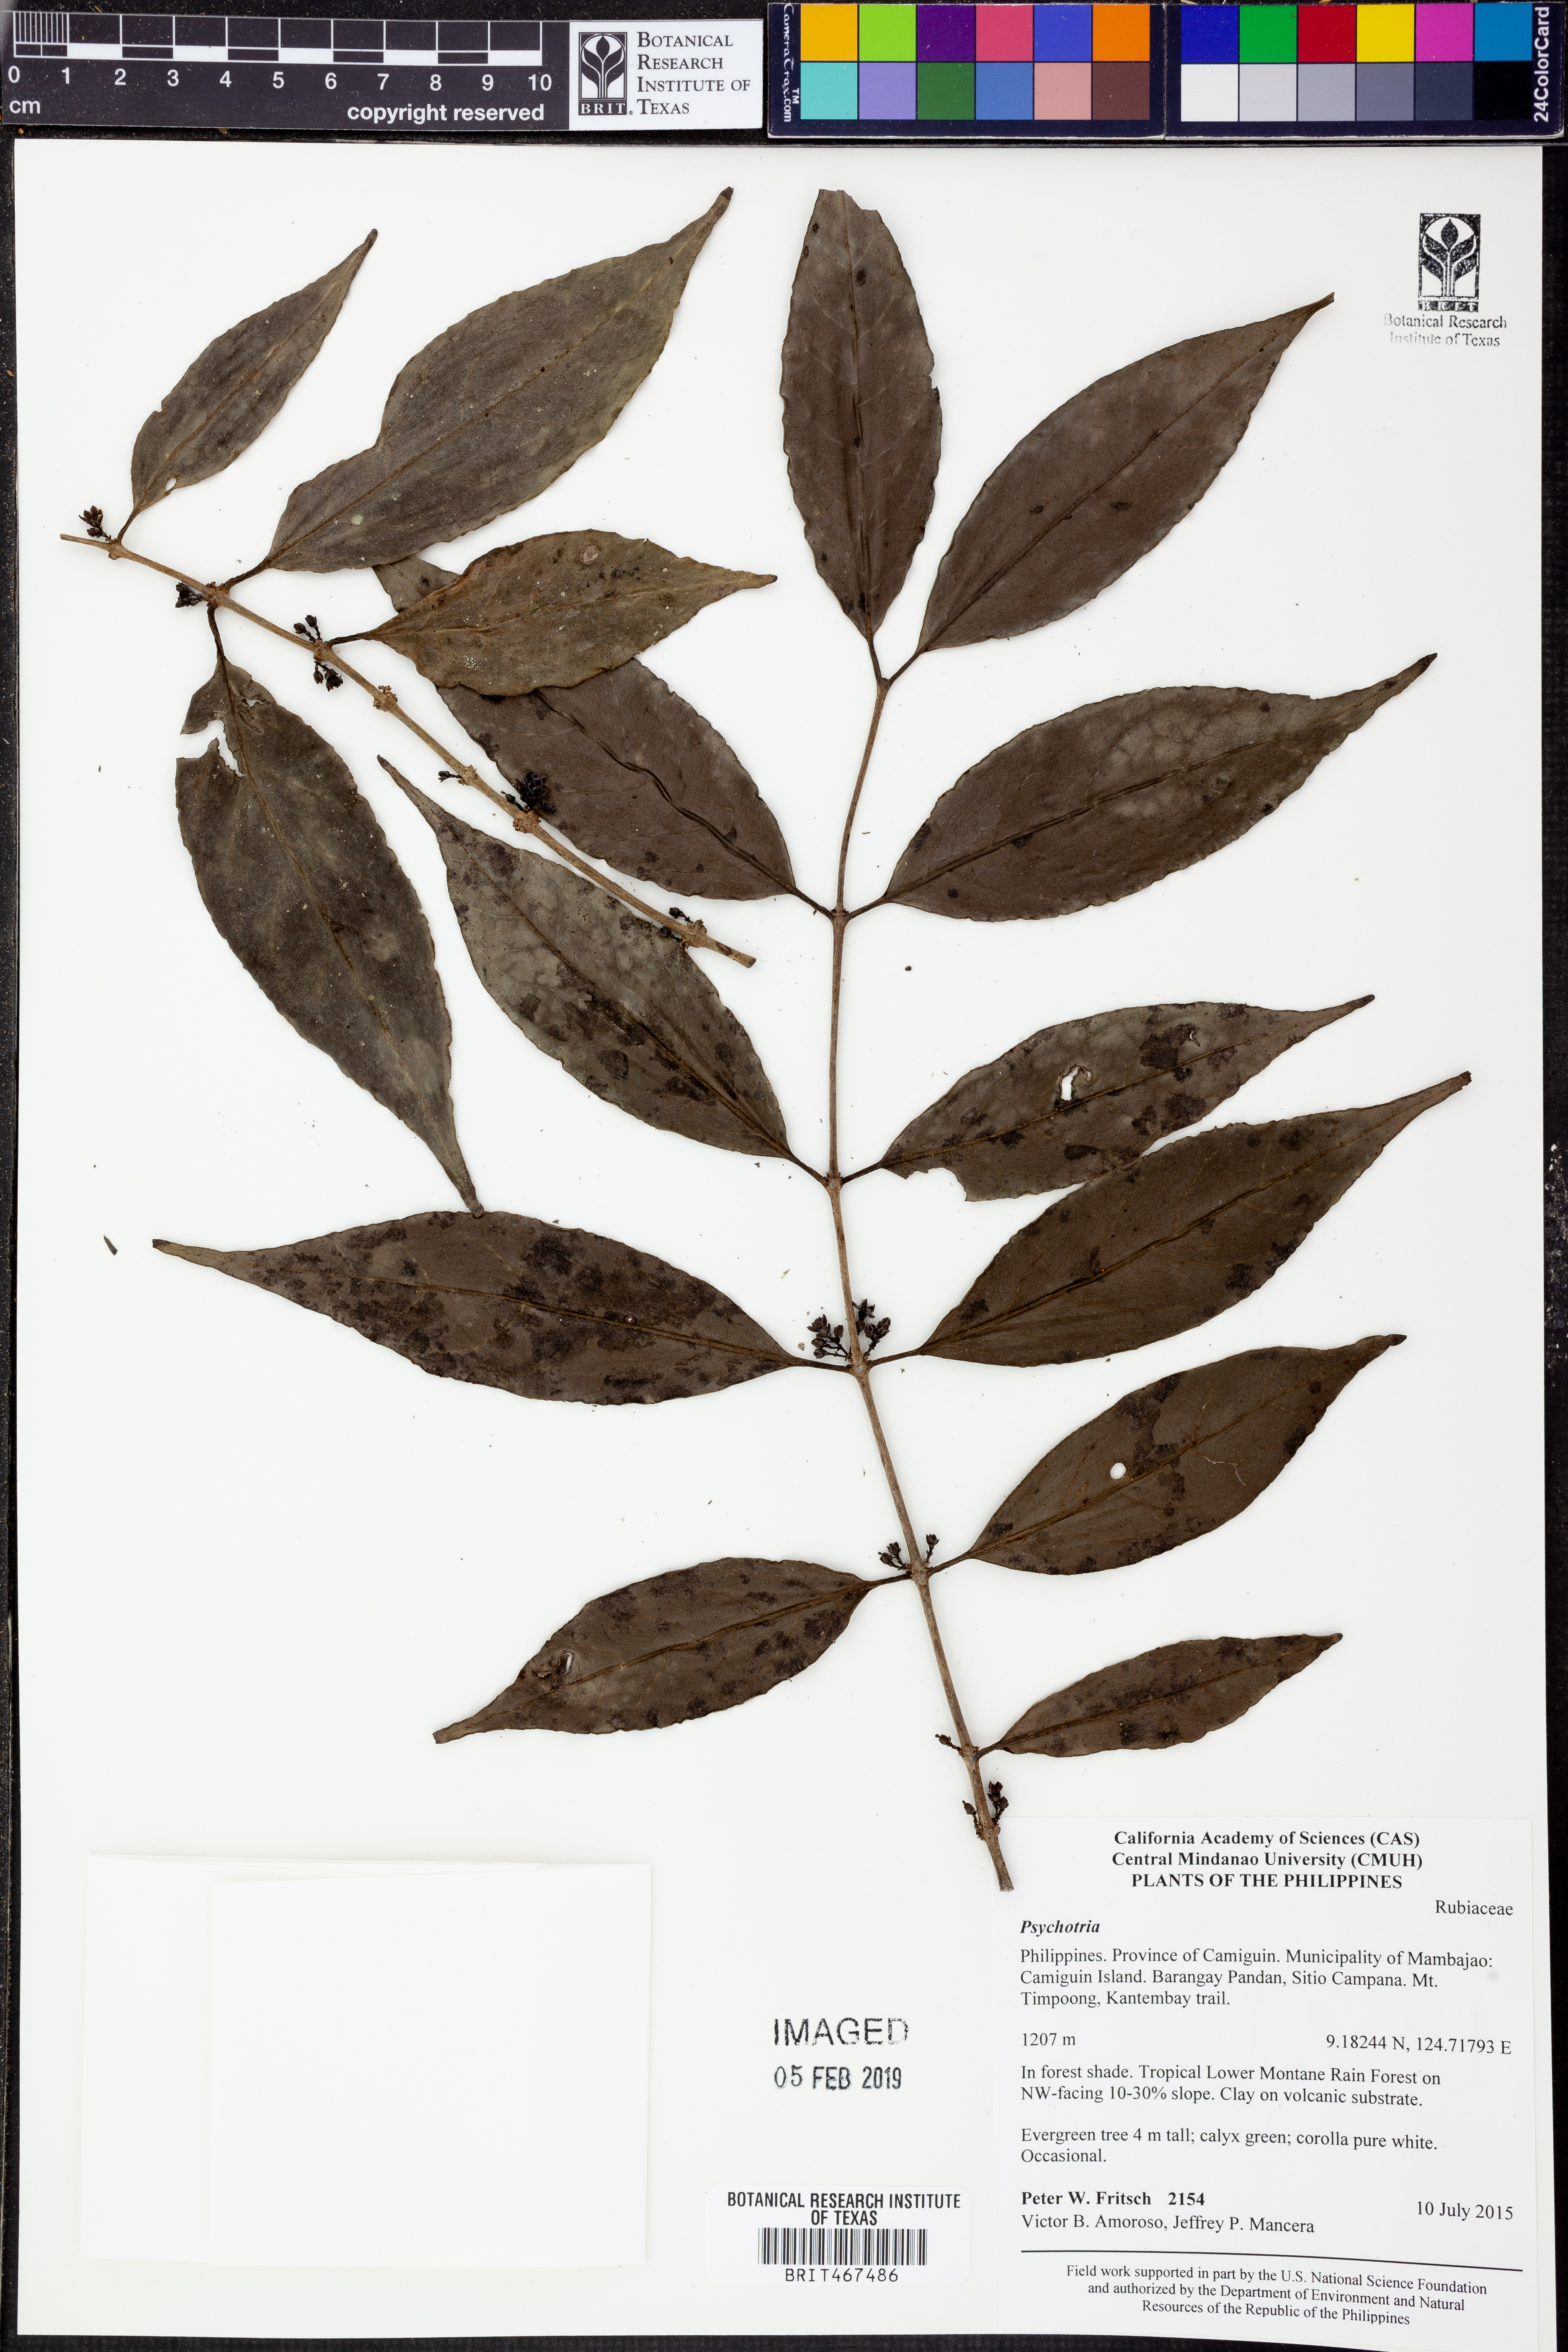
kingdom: Plantae
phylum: Tracheophyta
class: Magnoliopsida
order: Gentianales
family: Rubiaceae
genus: Psychotria
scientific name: Psychotria
